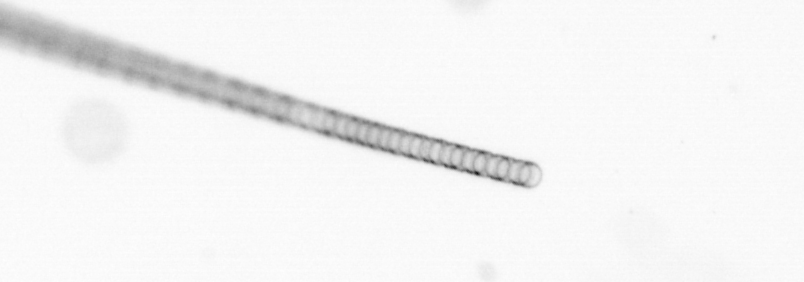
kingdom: Chromista
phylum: Ochrophyta
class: Bacillariophyceae
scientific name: Bacillariophyceae
